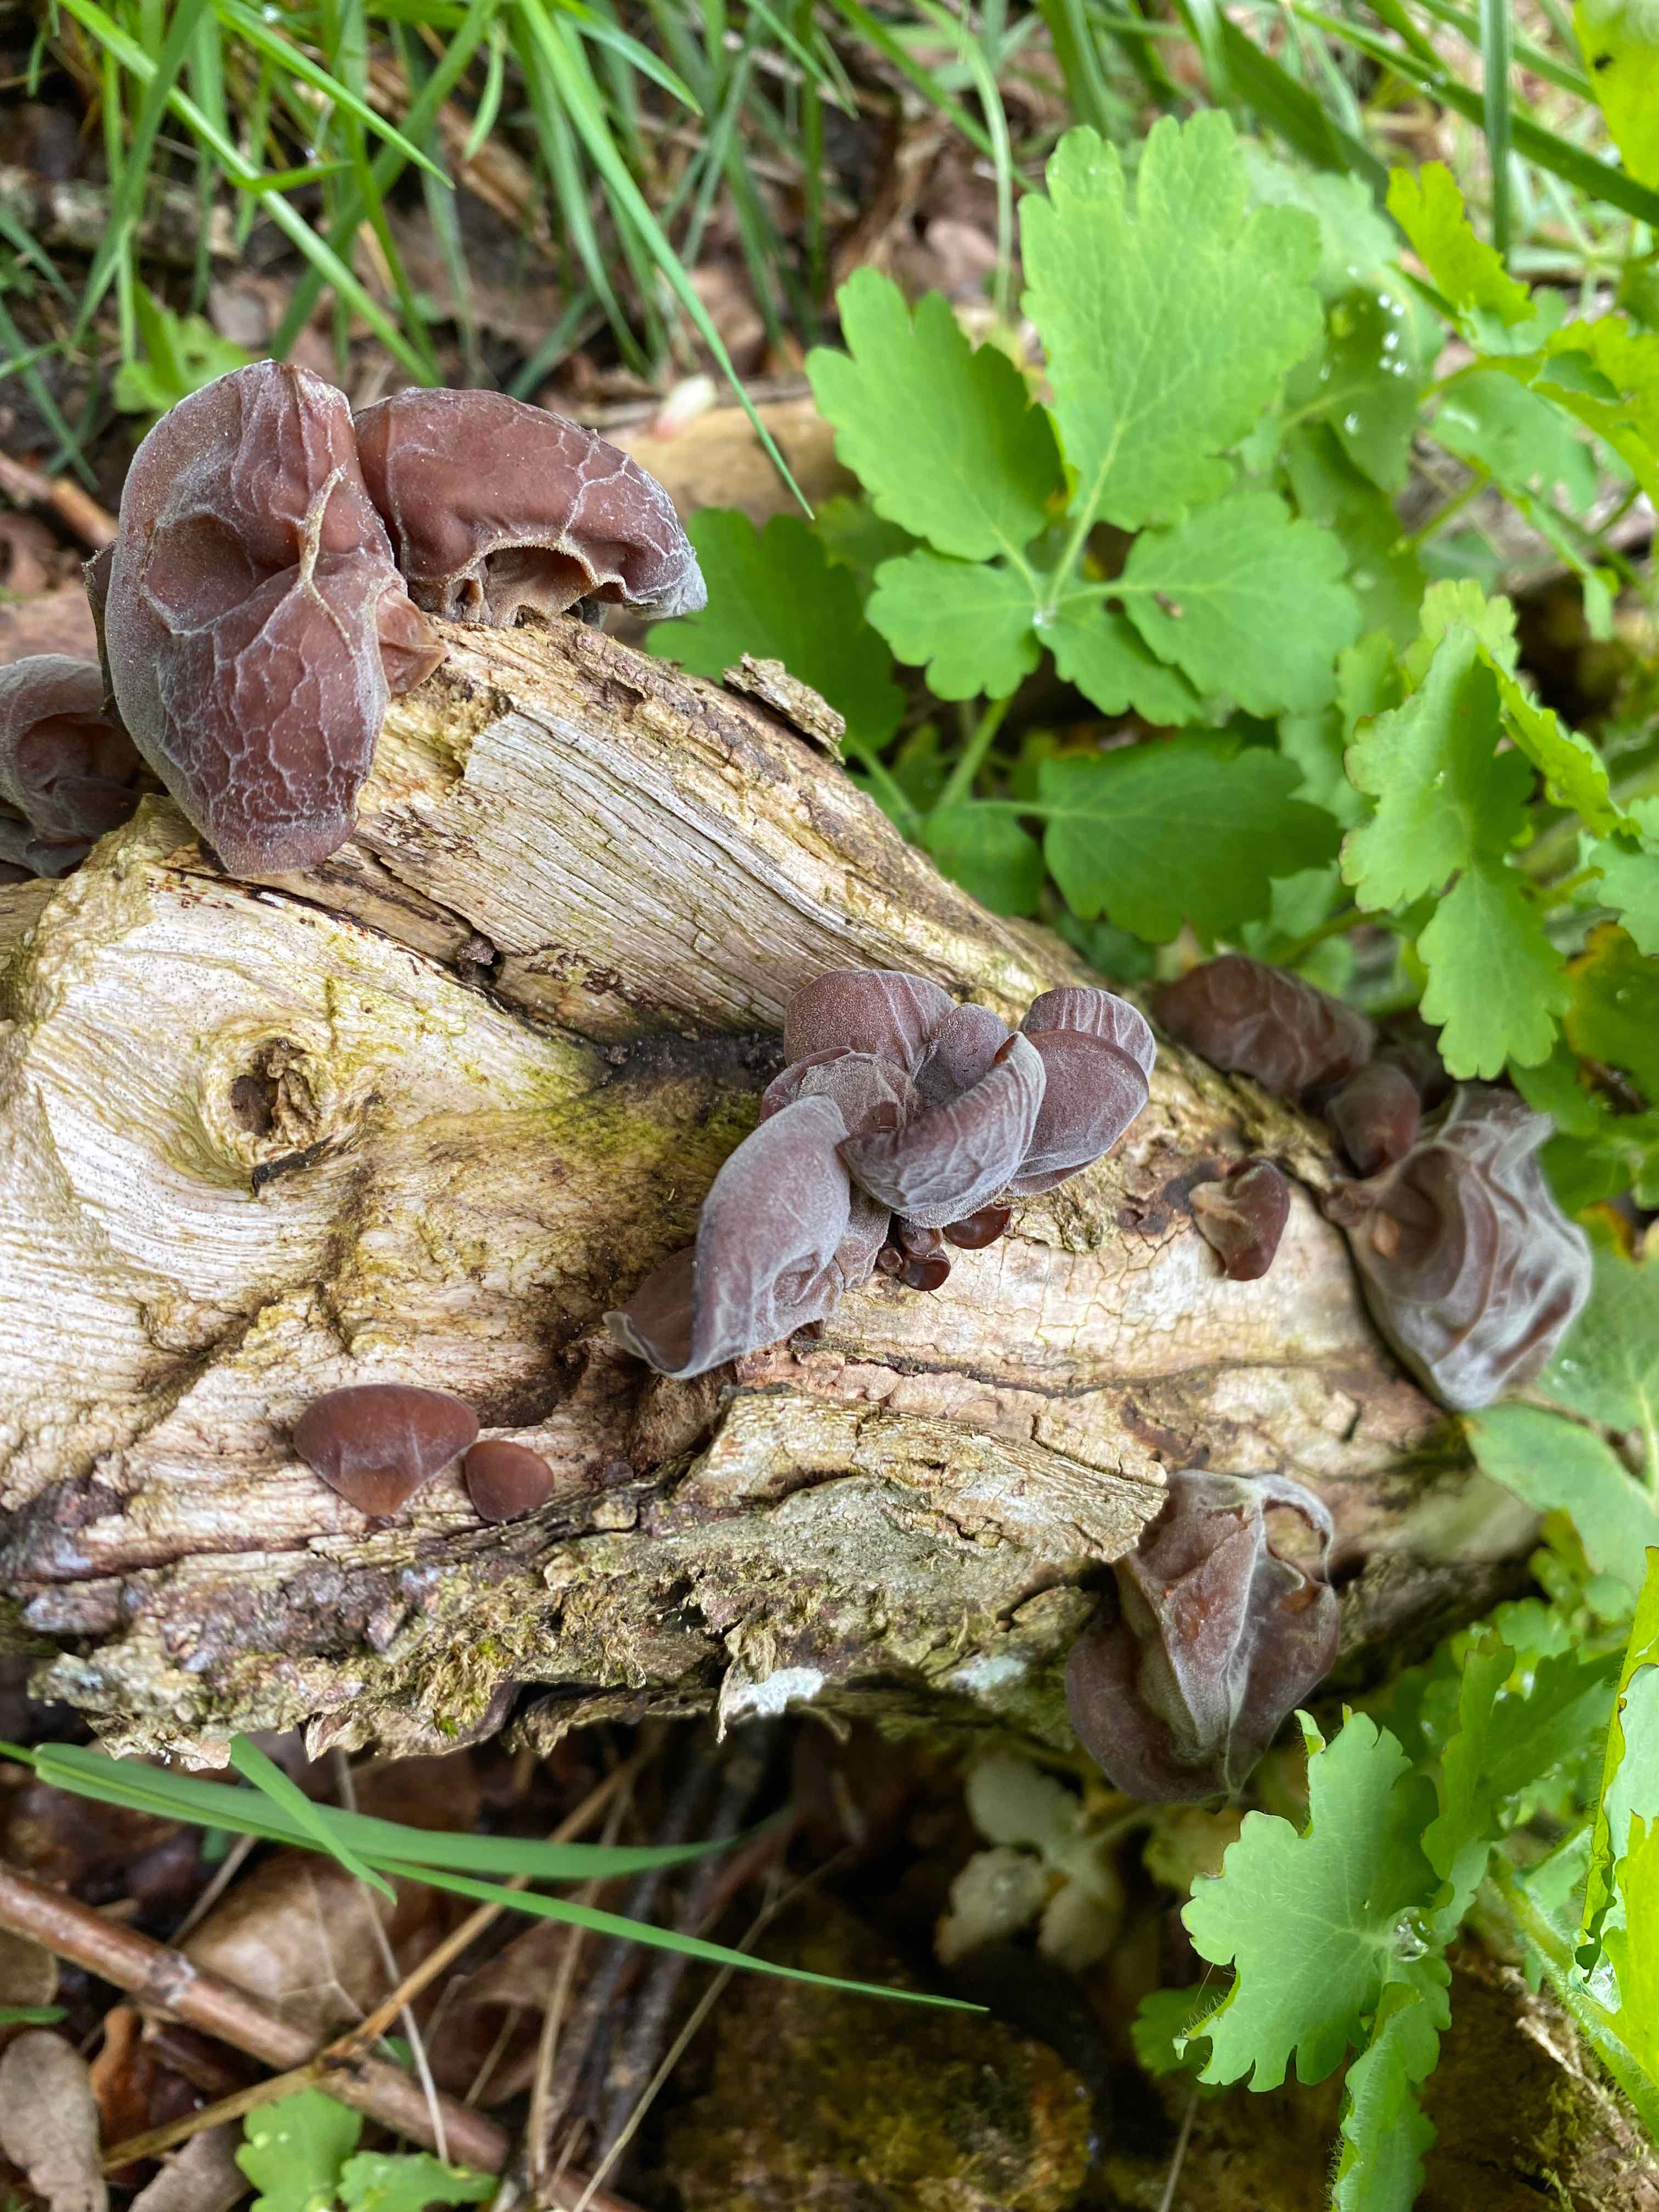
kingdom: Fungi
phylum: Basidiomycota
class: Agaricomycetes
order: Auriculariales
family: Auriculariaceae
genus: Auricularia
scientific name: Auricularia auricula-judae
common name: almindelig judasøre
